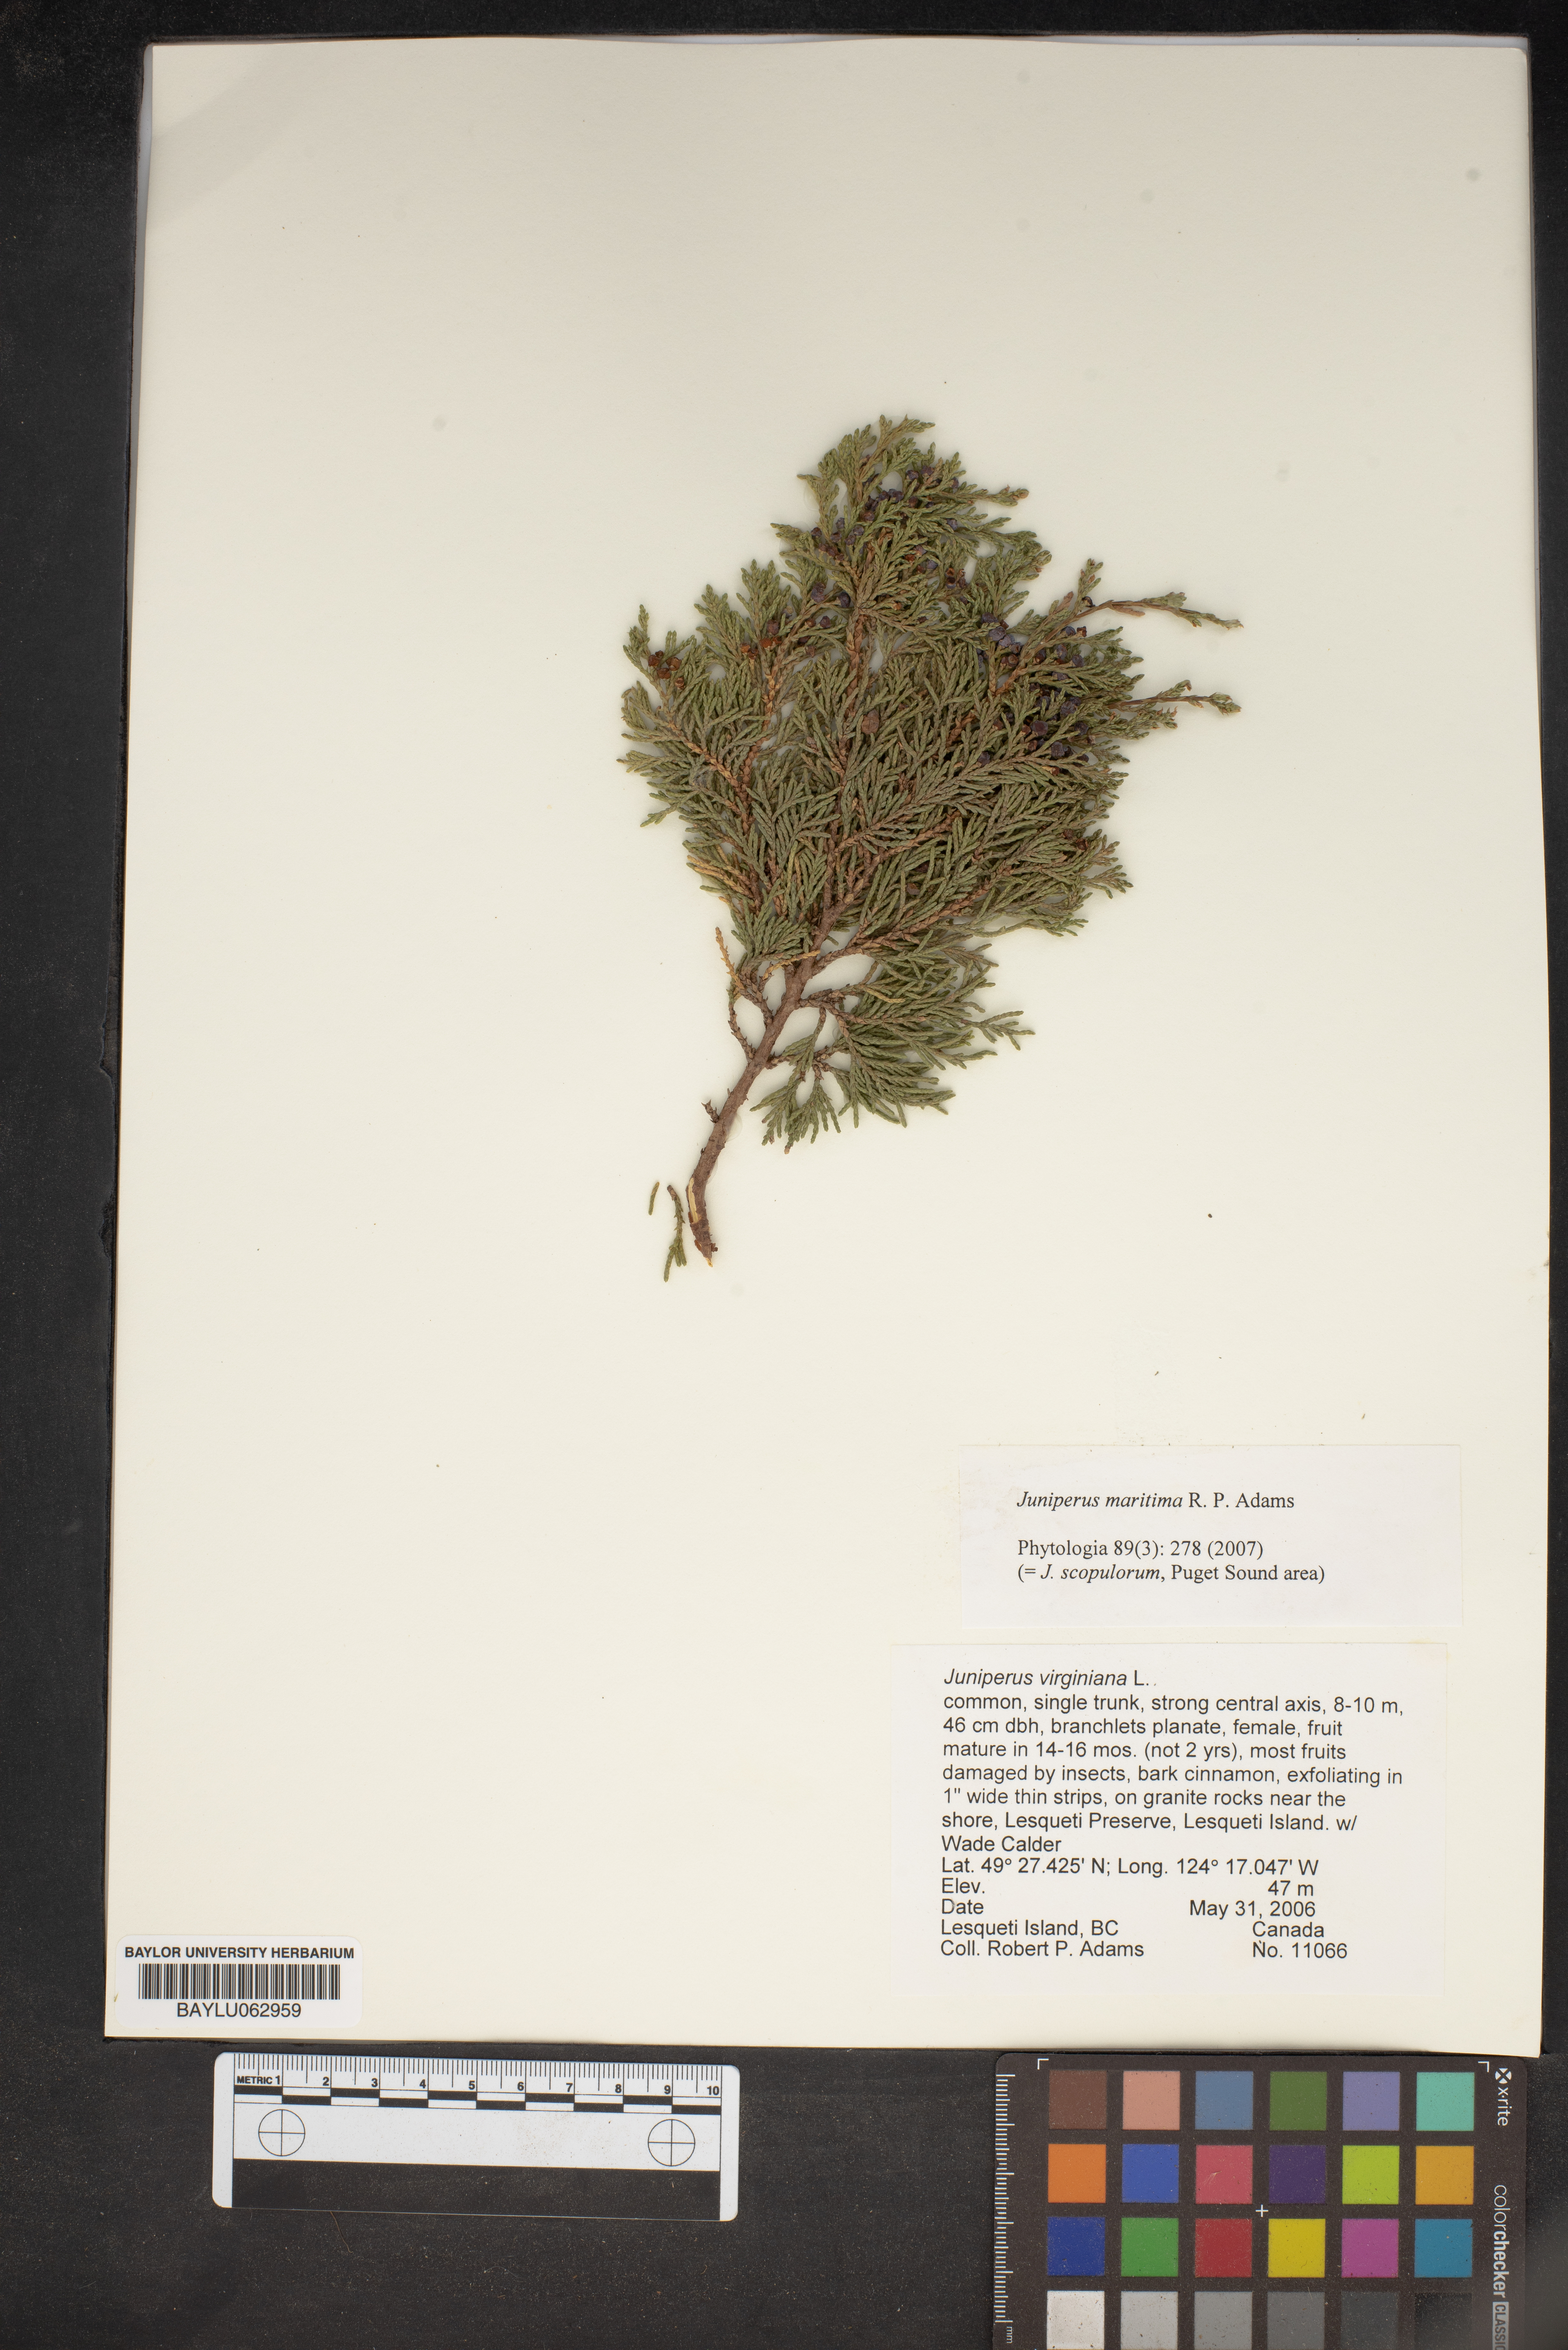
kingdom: Plantae
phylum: Tracheophyta
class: Pinopsida
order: Pinales
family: Cupressaceae
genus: Juniperus
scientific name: Juniperus scopulorum
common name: Rocky mountain juniper
